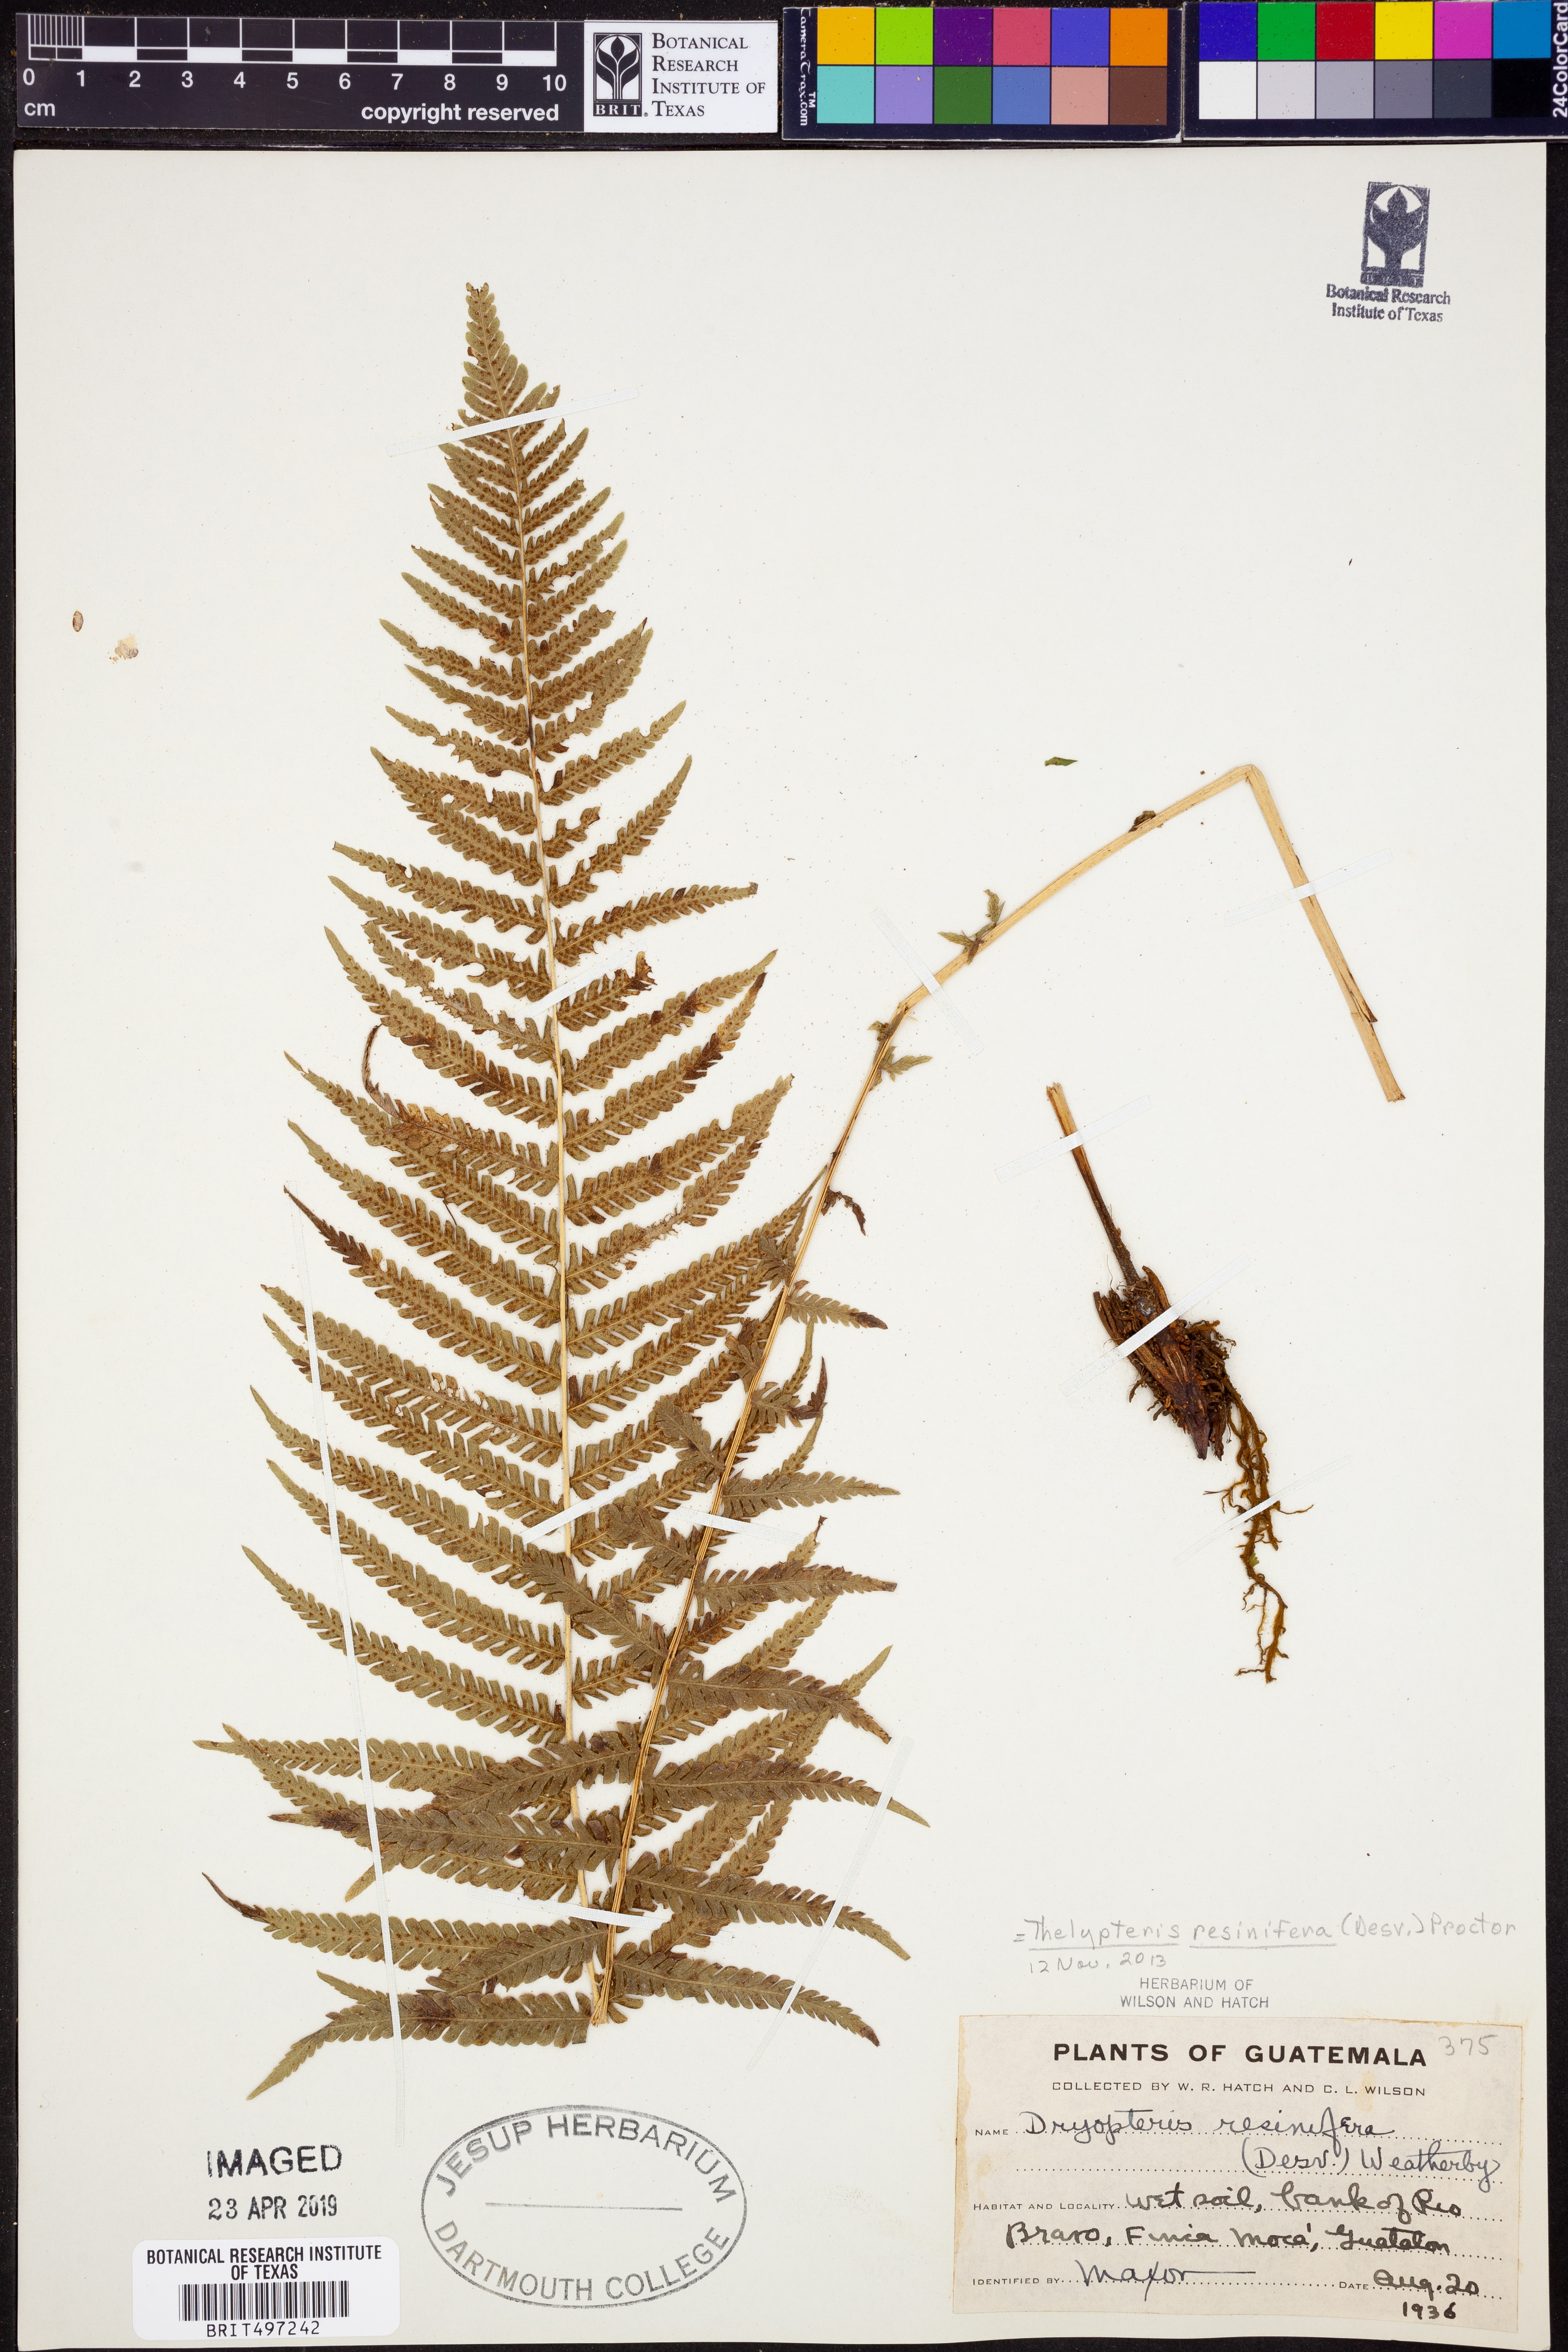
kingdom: Plantae
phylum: Tracheophyta
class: Polypodiopsida
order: Polypodiales
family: Thelypteridaceae
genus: Amauropelta
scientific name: Amauropelta resinifera
